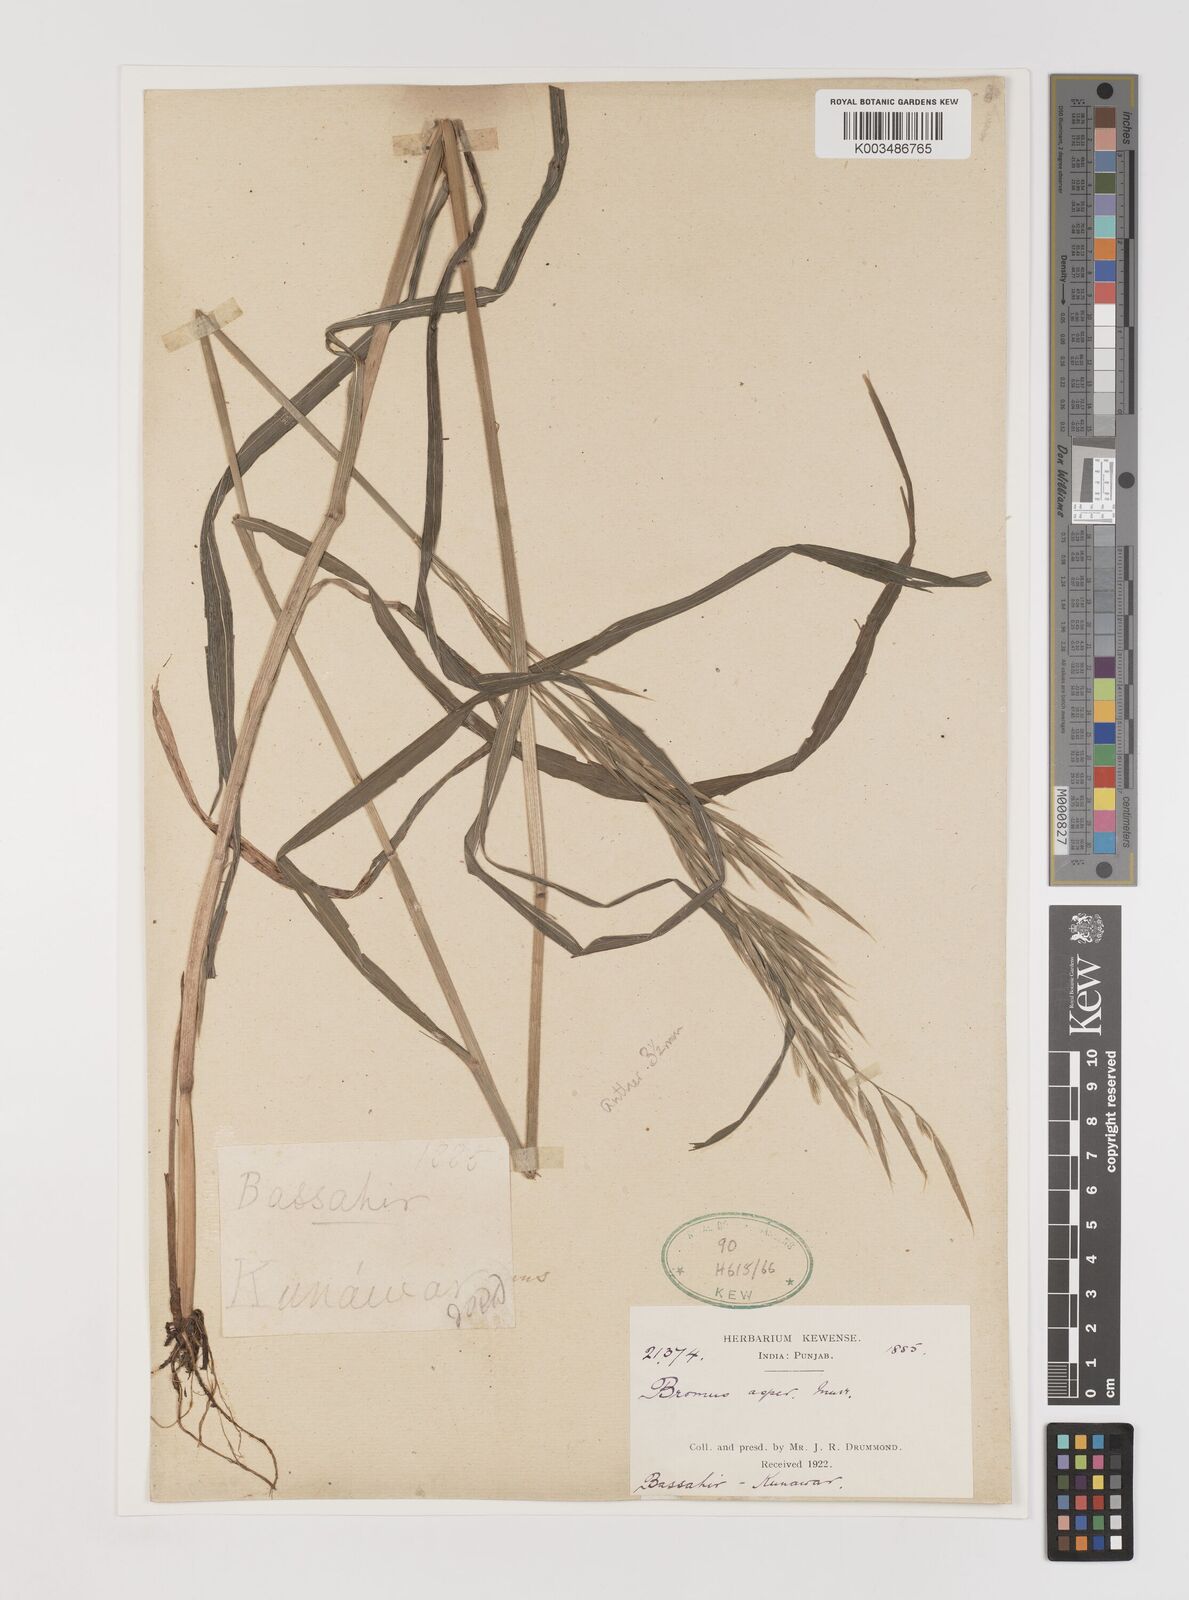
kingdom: Plantae
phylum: Tracheophyta
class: Liliopsida
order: Poales
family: Poaceae
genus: Brachypodium
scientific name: Brachypodium retusum
